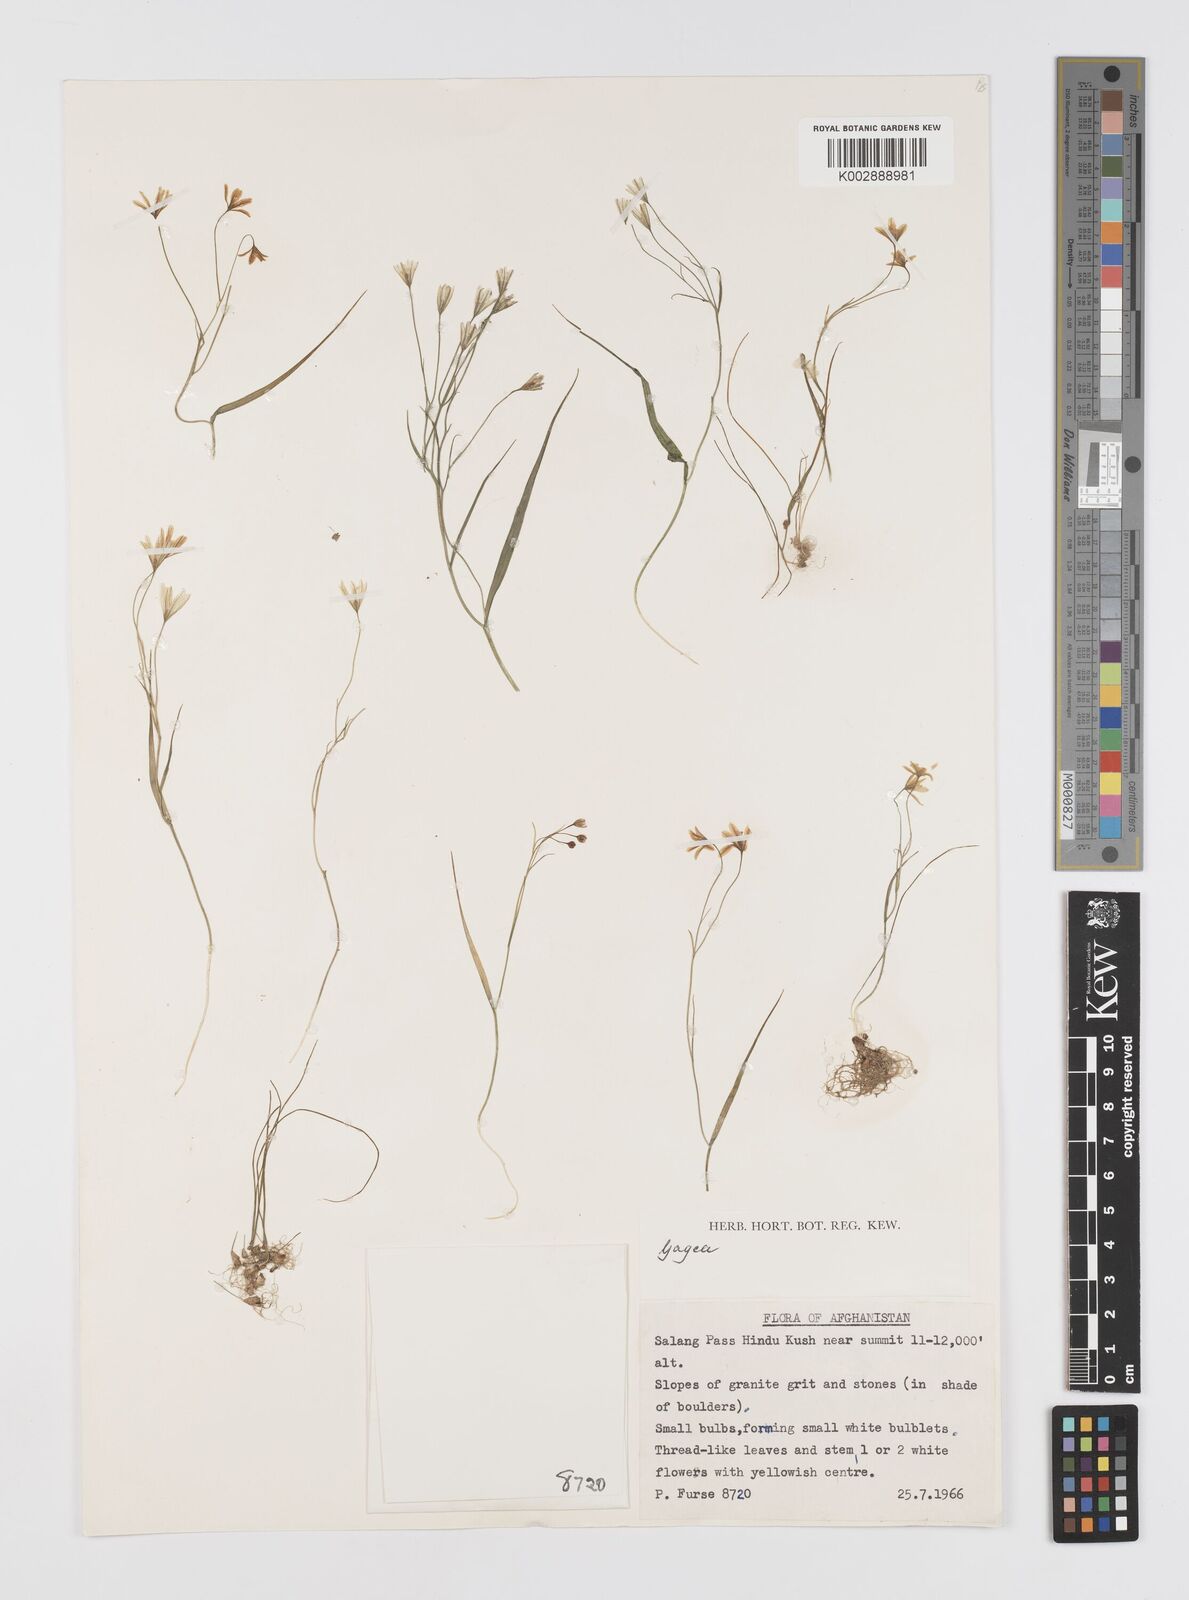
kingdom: Plantae
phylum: Tracheophyta
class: Liliopsida
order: Liliales
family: Liliaceae
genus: Gagea
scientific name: Gagea
